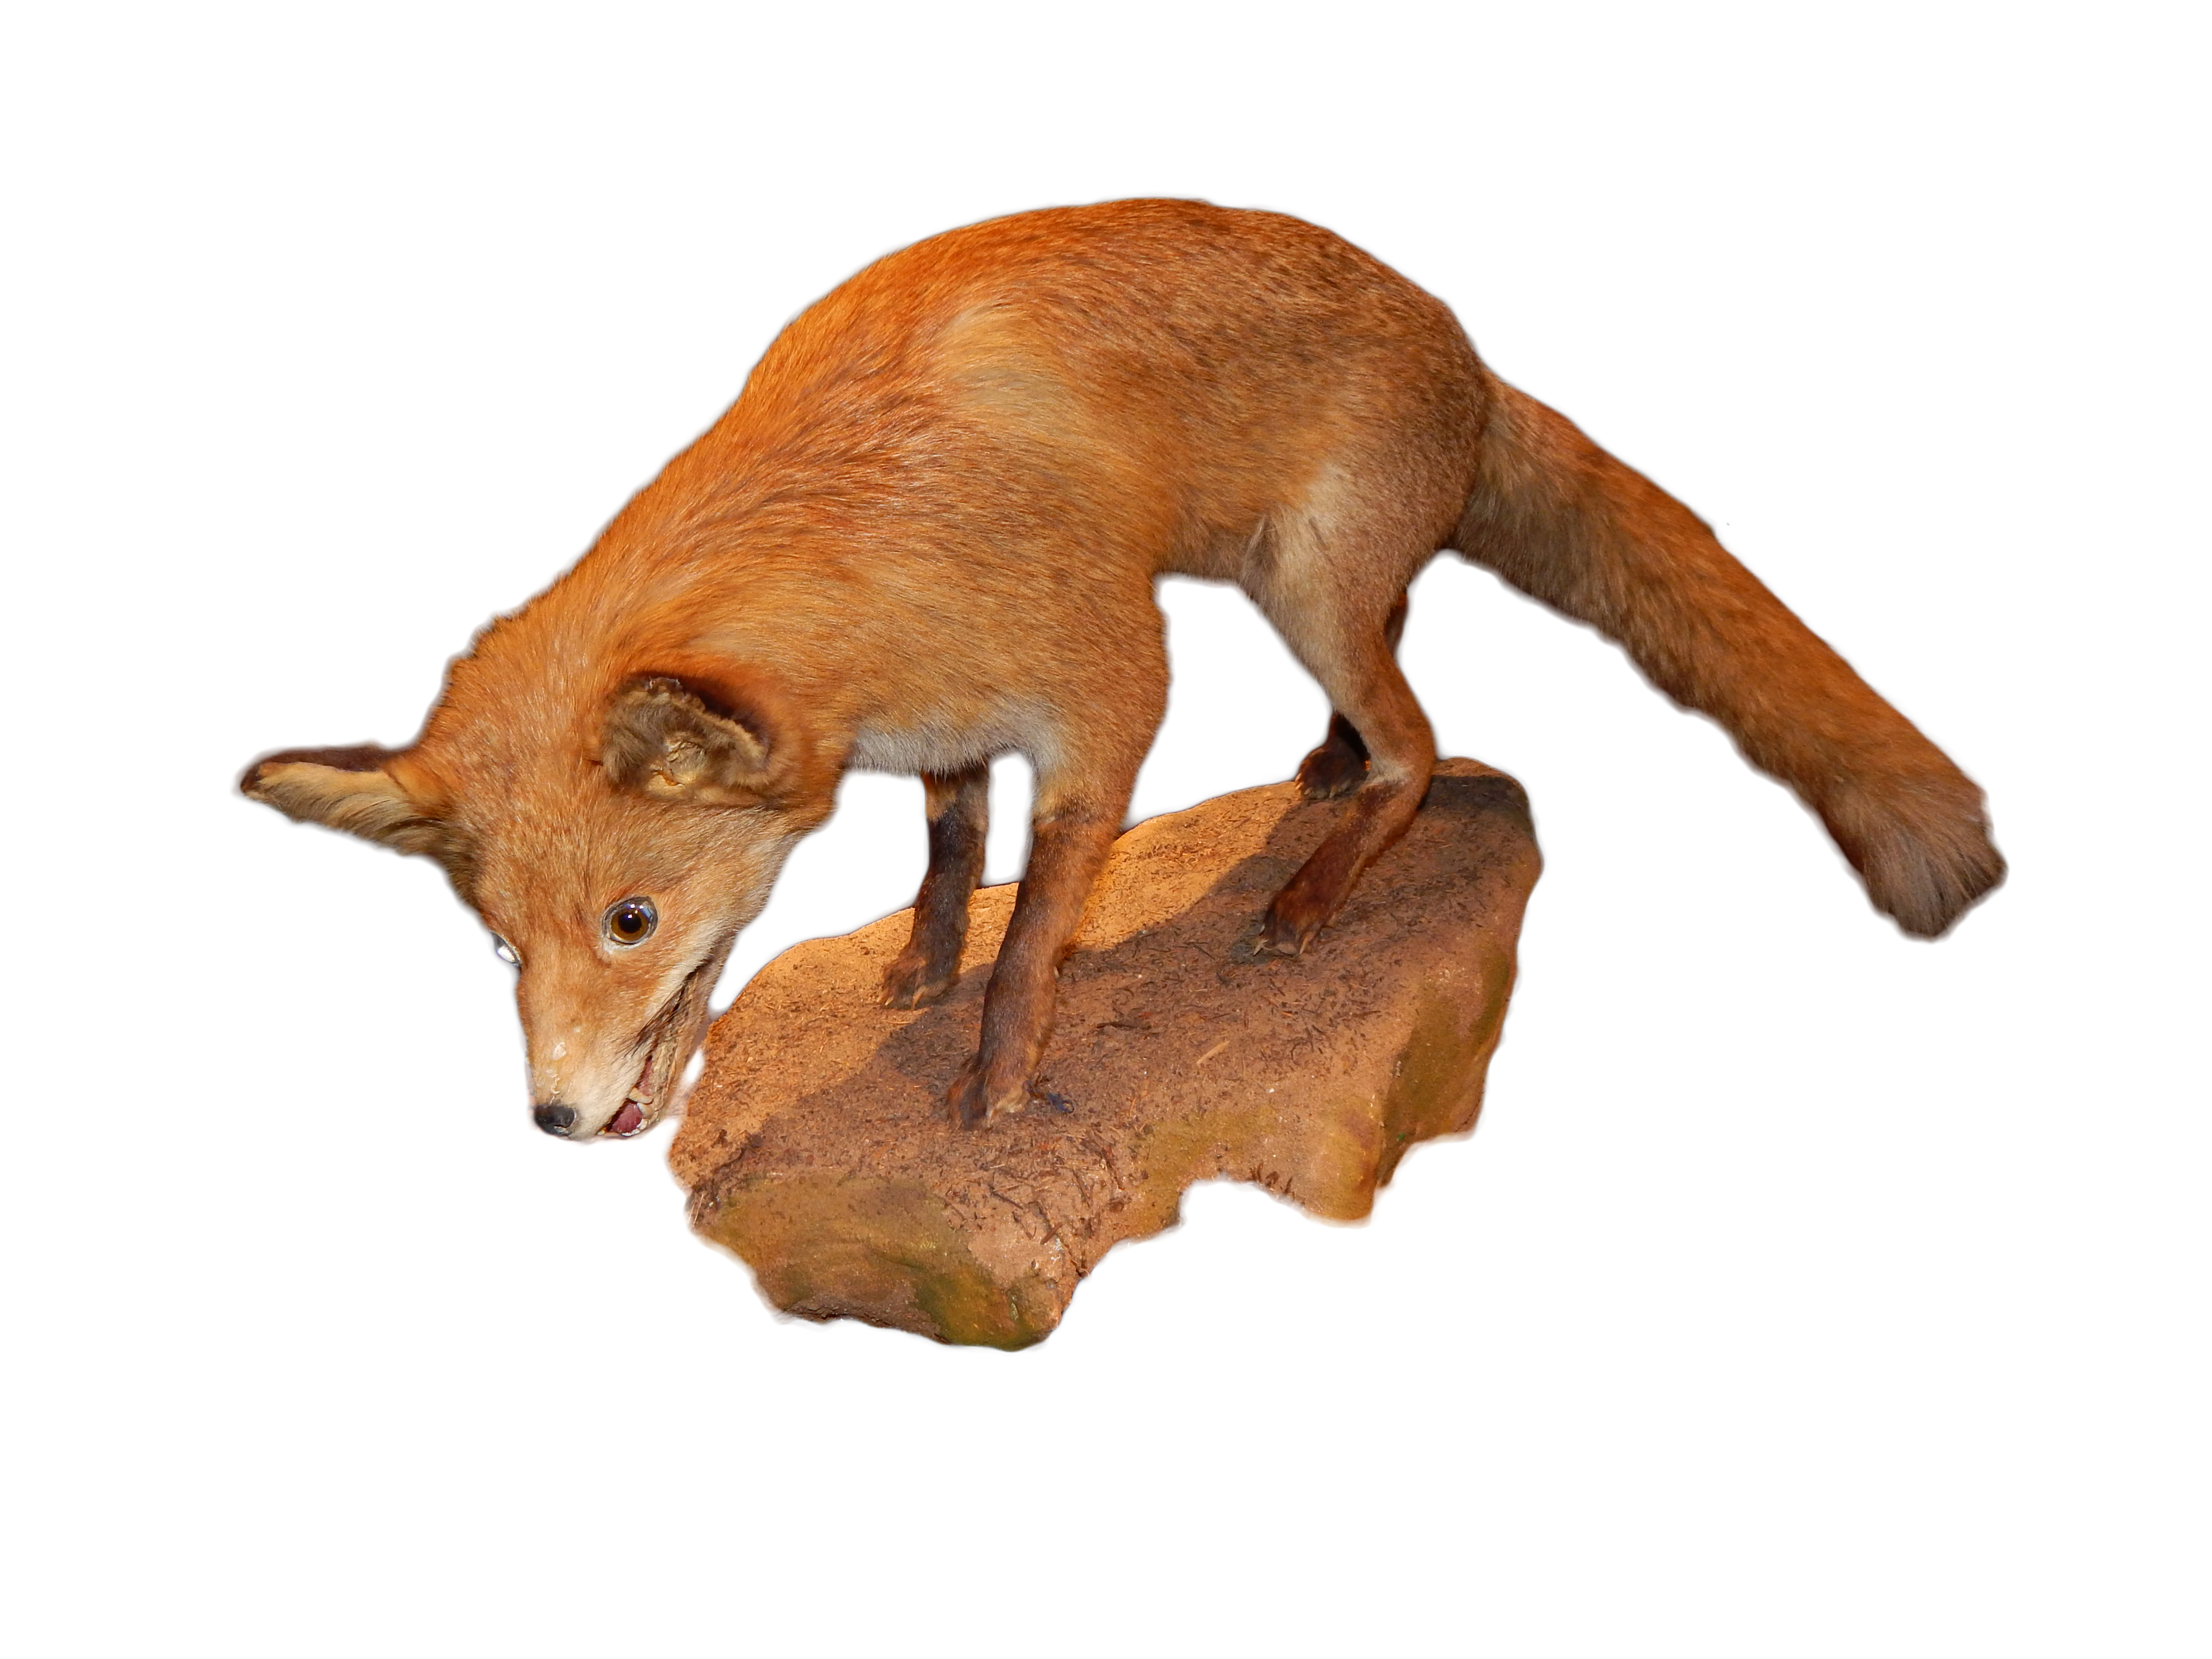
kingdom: Animalia
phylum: Chordata
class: Mammalia
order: Carnivora
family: Canidae
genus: Vulpes
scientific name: Vulpes vulpes
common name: Red fox
